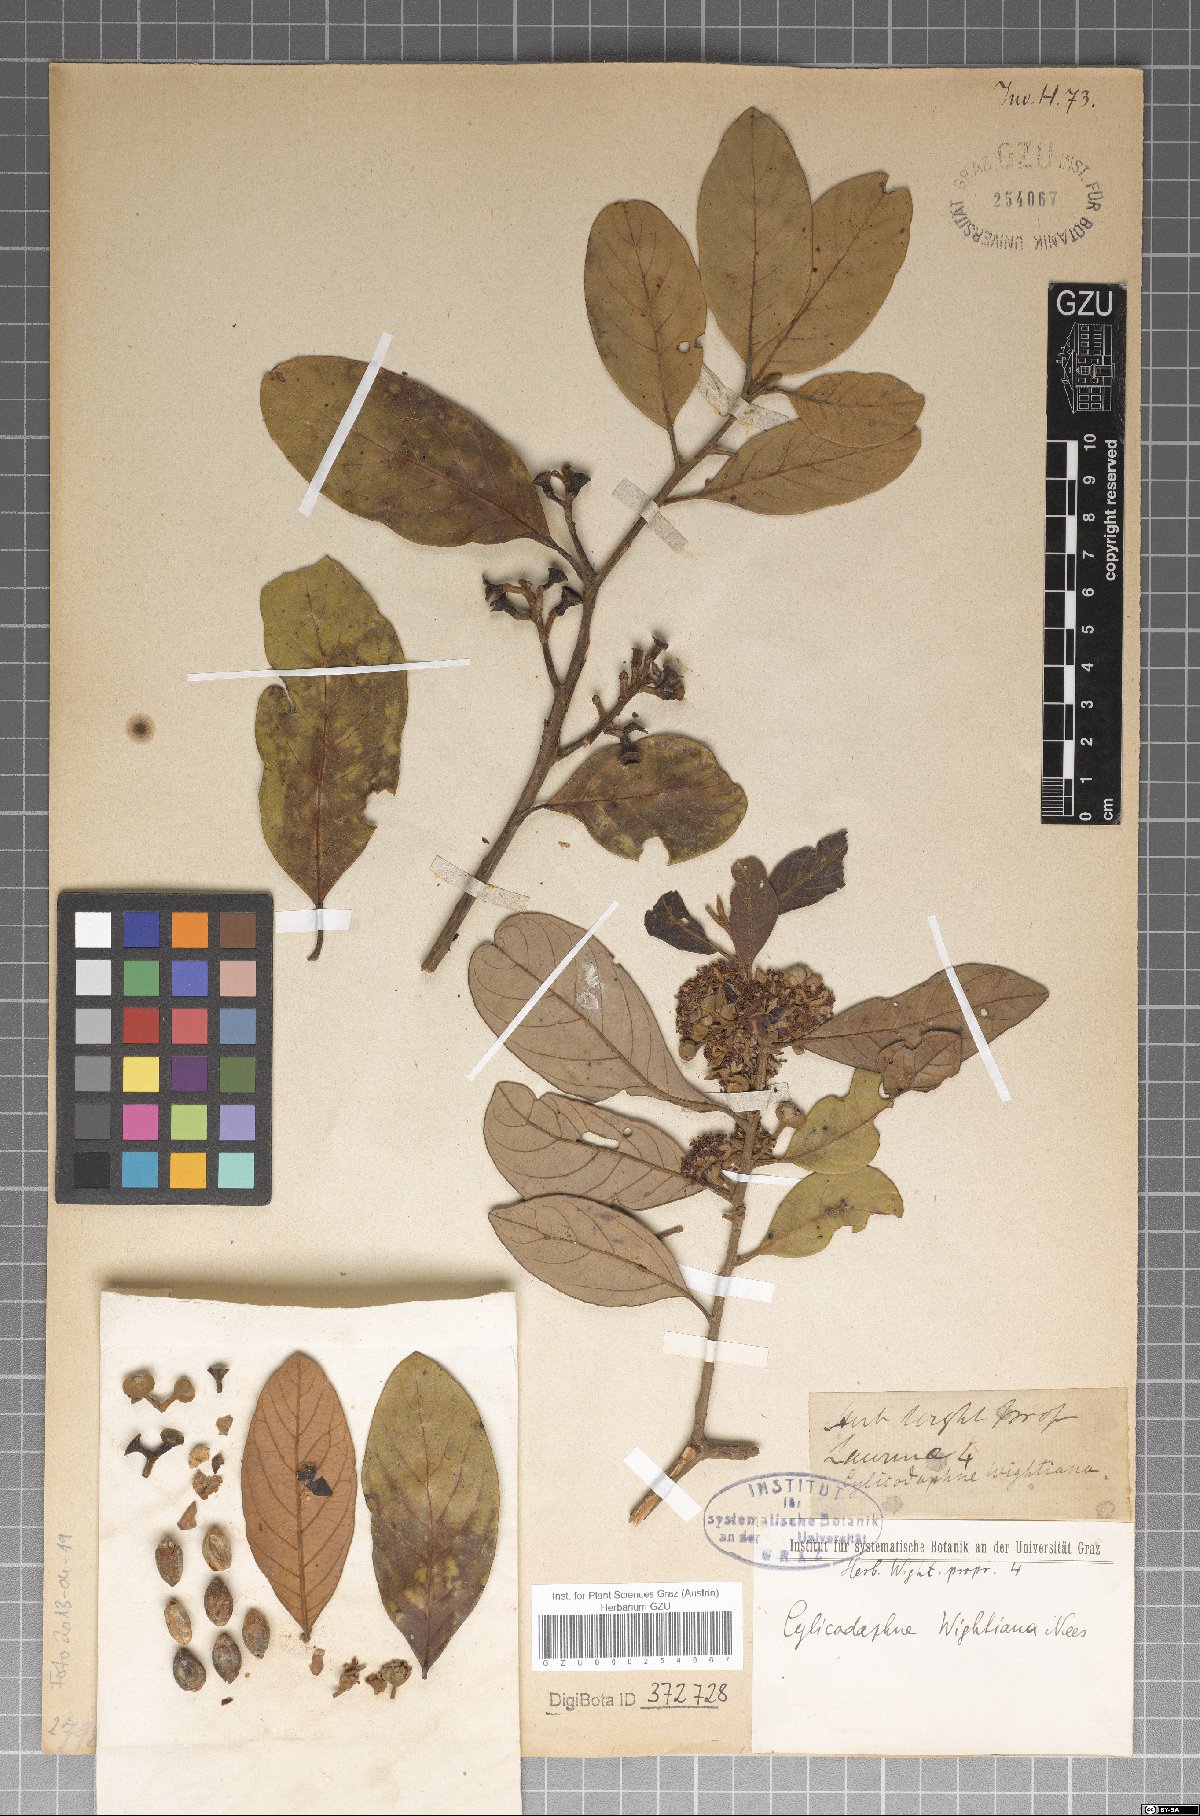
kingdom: Plantae
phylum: Tracheophyta
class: Magnoliopsida
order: Laurales
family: Lauraceae
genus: Litsea
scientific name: Litsea wightiana
